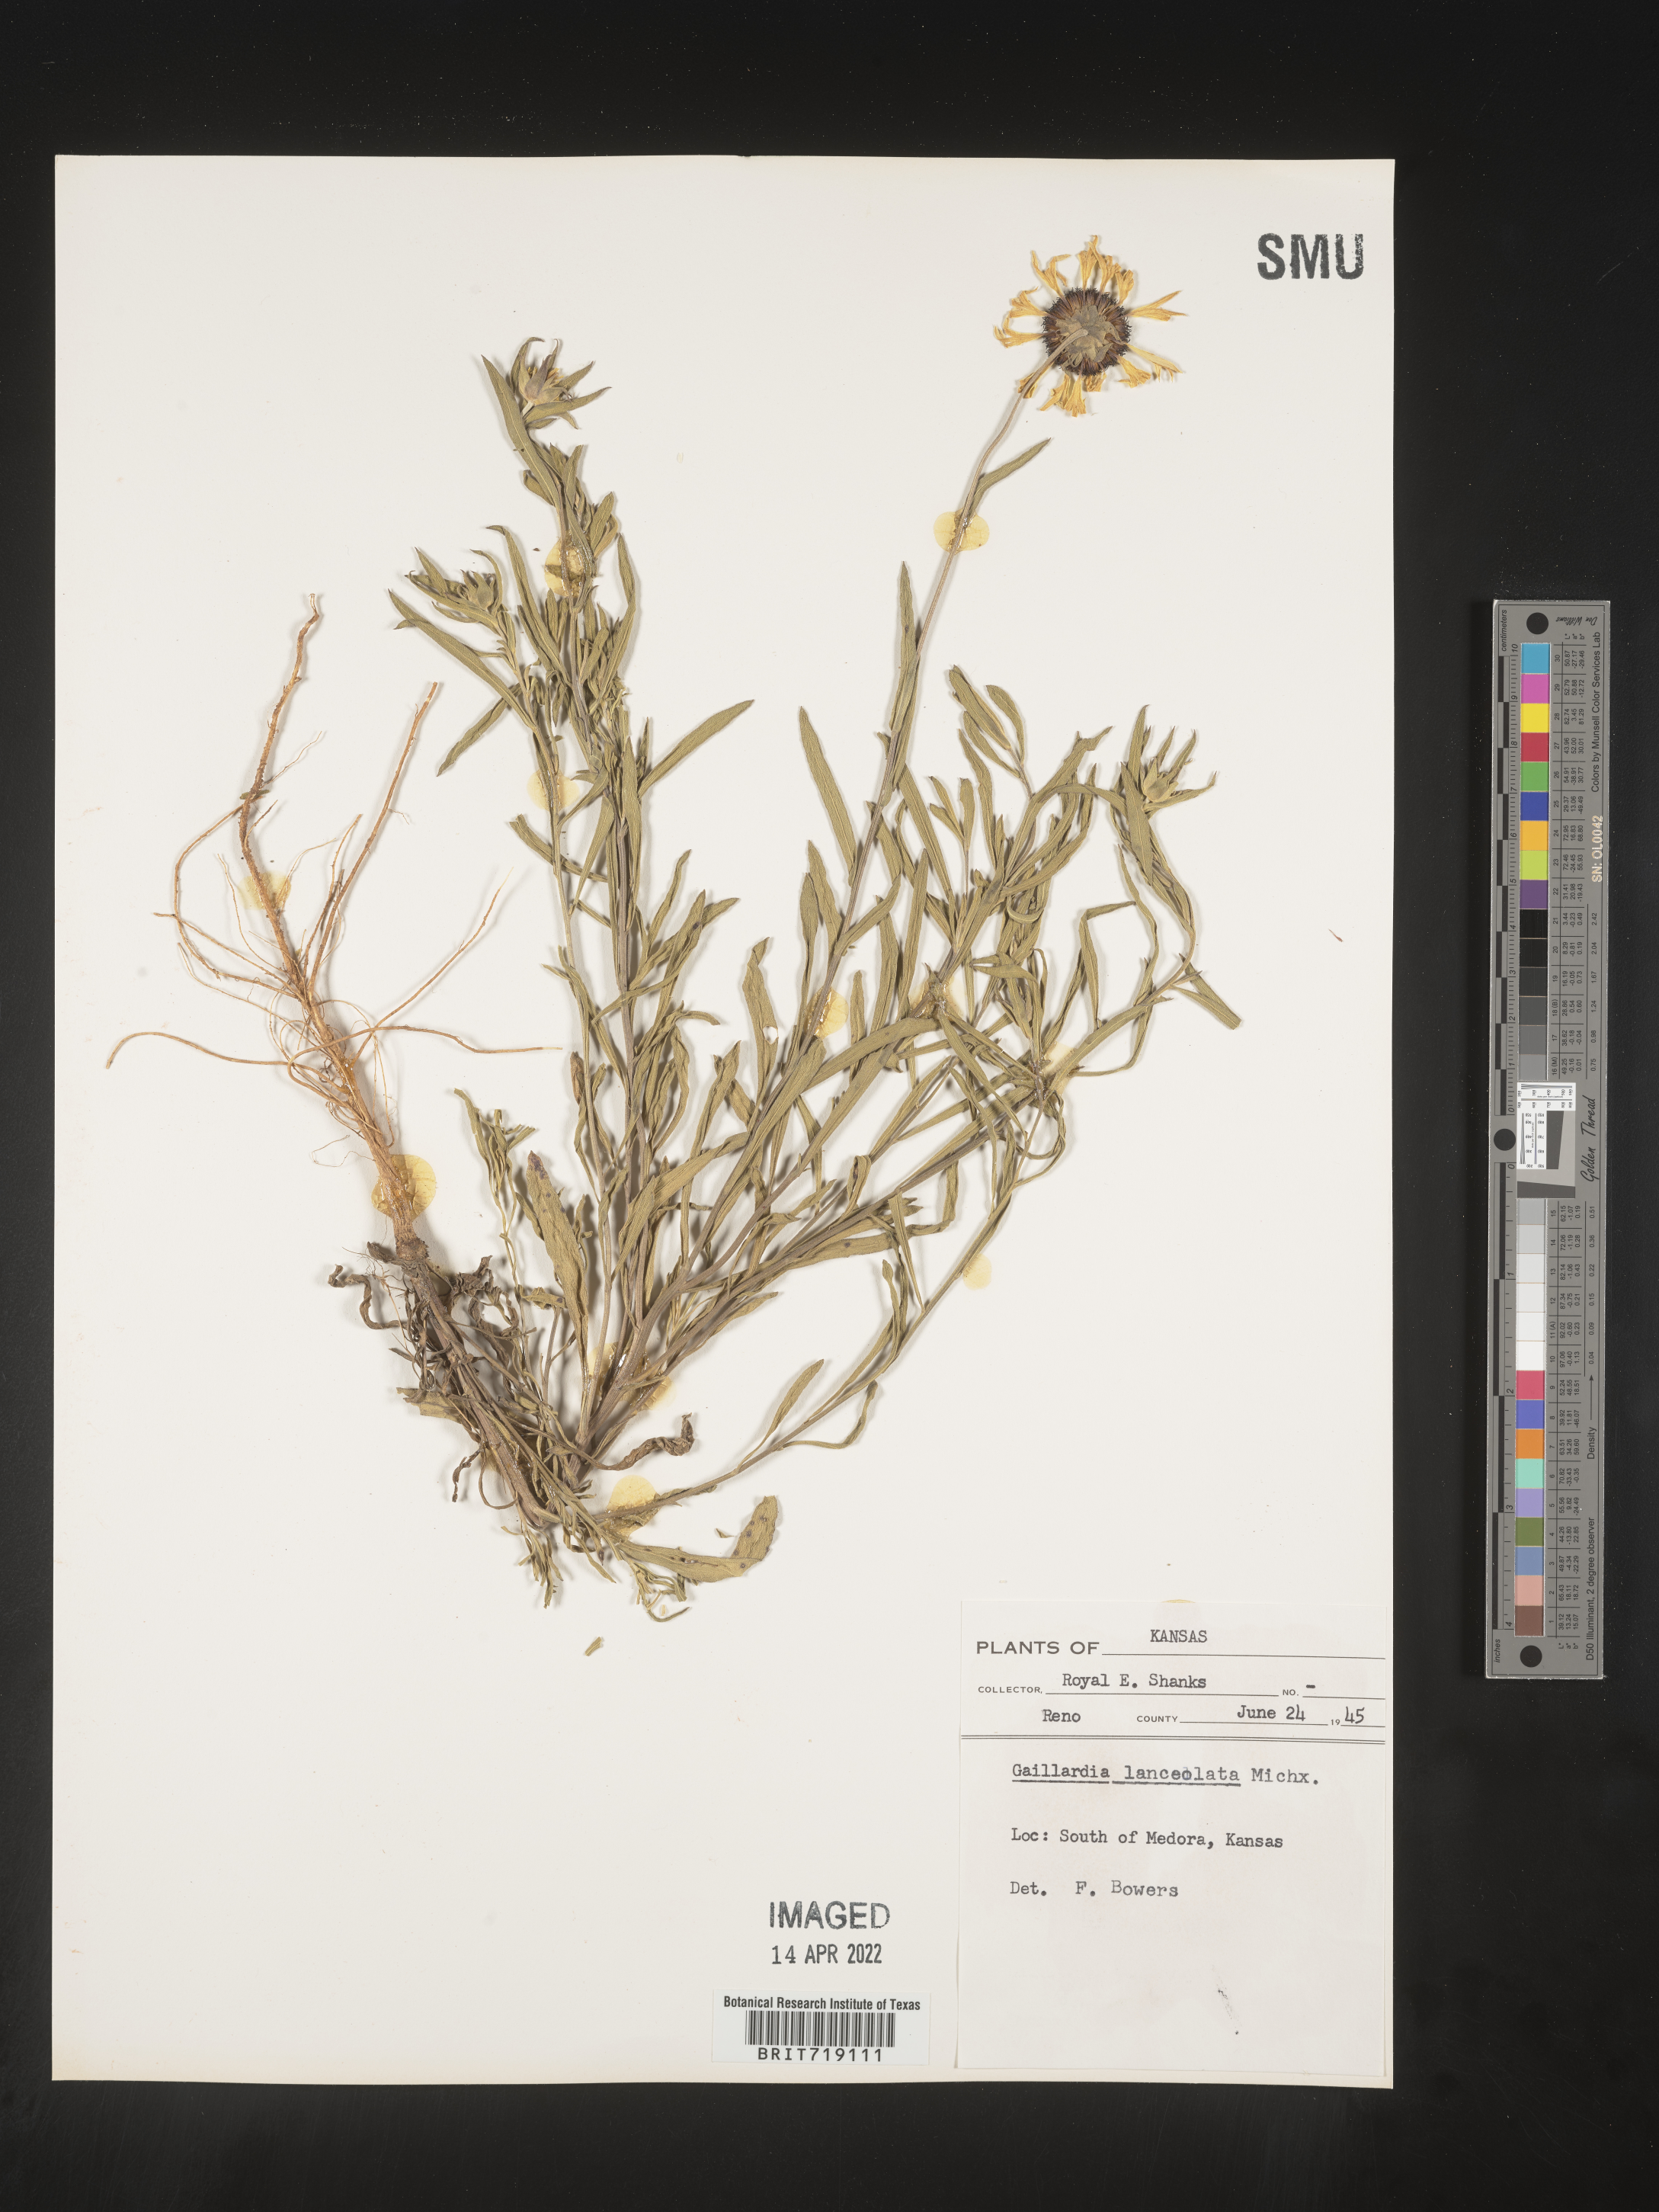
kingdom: Plantae
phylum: Tracheophyta
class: Magnoliopsida
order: Asterales
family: Asteraceae
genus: Gaillardia
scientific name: Gaillardia
